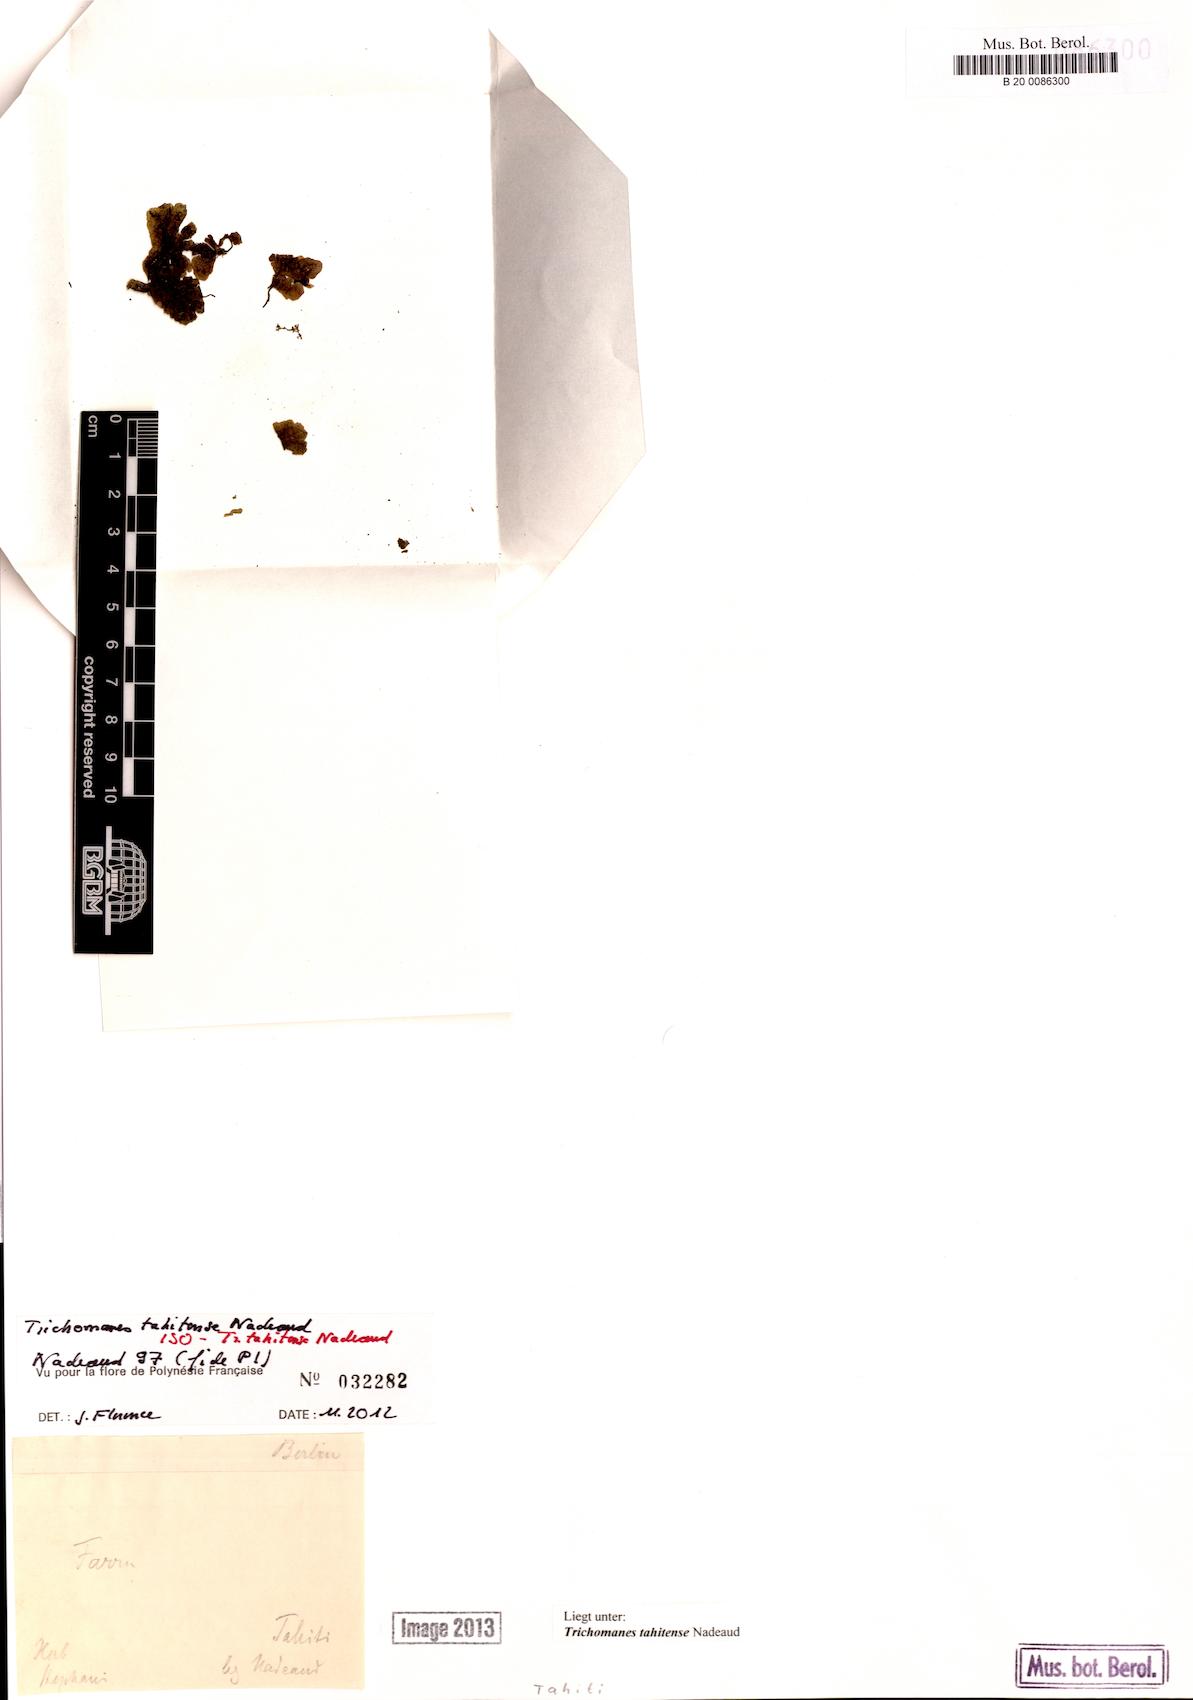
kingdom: Plantae
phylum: Tracheophyta
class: Polypodiopsida
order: Hymenophyllales
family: Hymenophyllaceae
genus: Didymoglossum
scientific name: Didymoglossum tahitense
